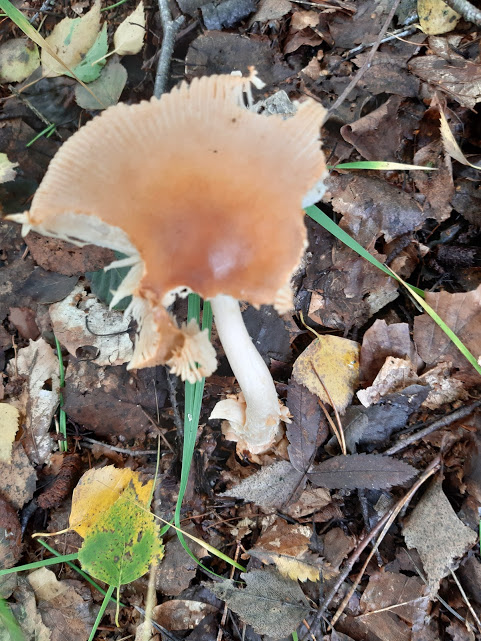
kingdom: Fungi
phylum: Basidiomycota
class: Agaricomycetes
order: Agaricales
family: Amanitaceae
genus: Amanita
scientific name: Amanita fulva
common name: brun kam-fluesvamp
